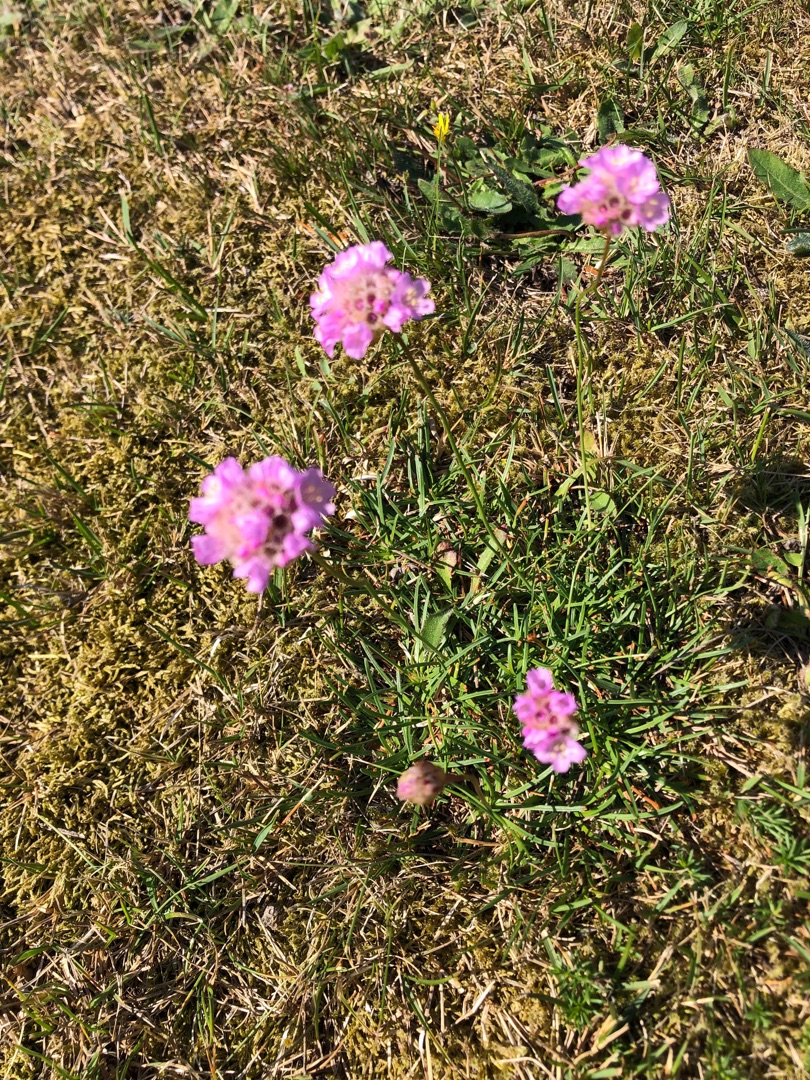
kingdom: Plantae
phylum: Tracheophyta
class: Magnoliopsida
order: Caryophyllales
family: Plumbaginaceae
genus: Armeria
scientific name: Armeria maritima
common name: Engelskgræs
